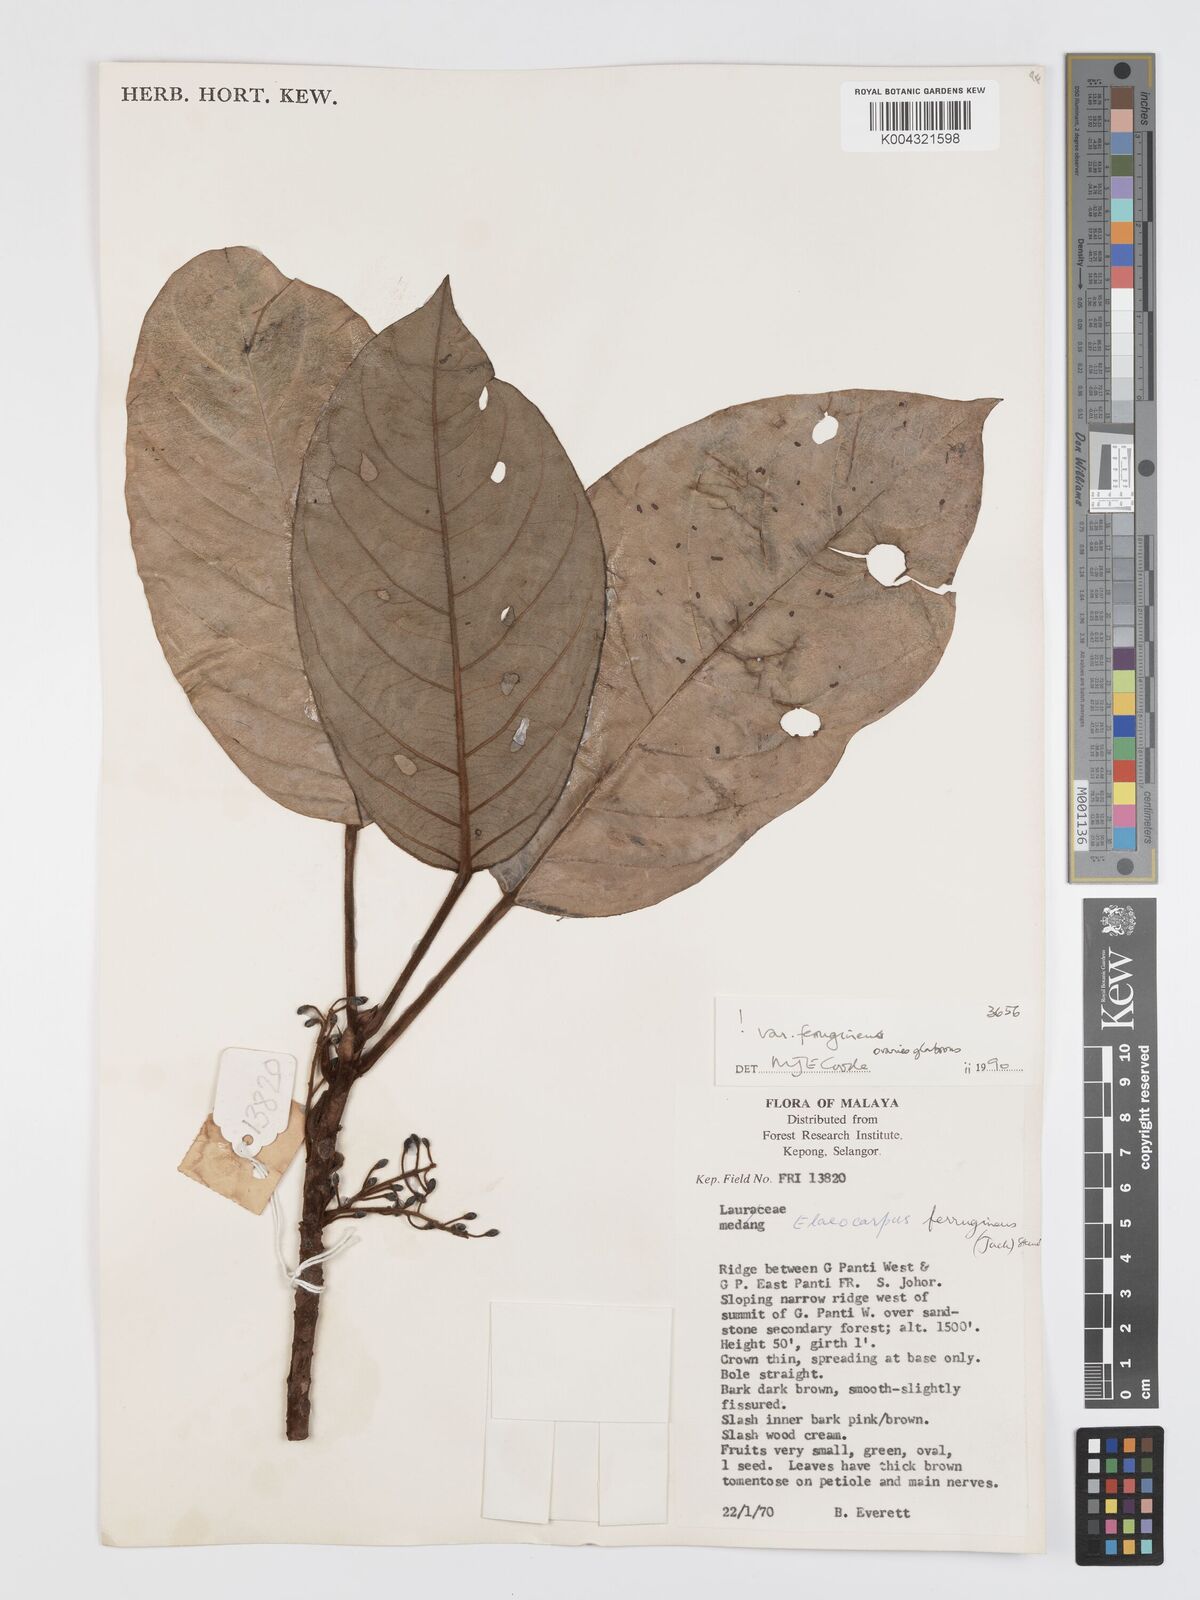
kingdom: Plantae
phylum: Tracheophyta
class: Magnoliopsida
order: Oxalidales
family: Elaeocarpaceae
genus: Elaeocarpus
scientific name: Elaeocarpus ferrugineus
